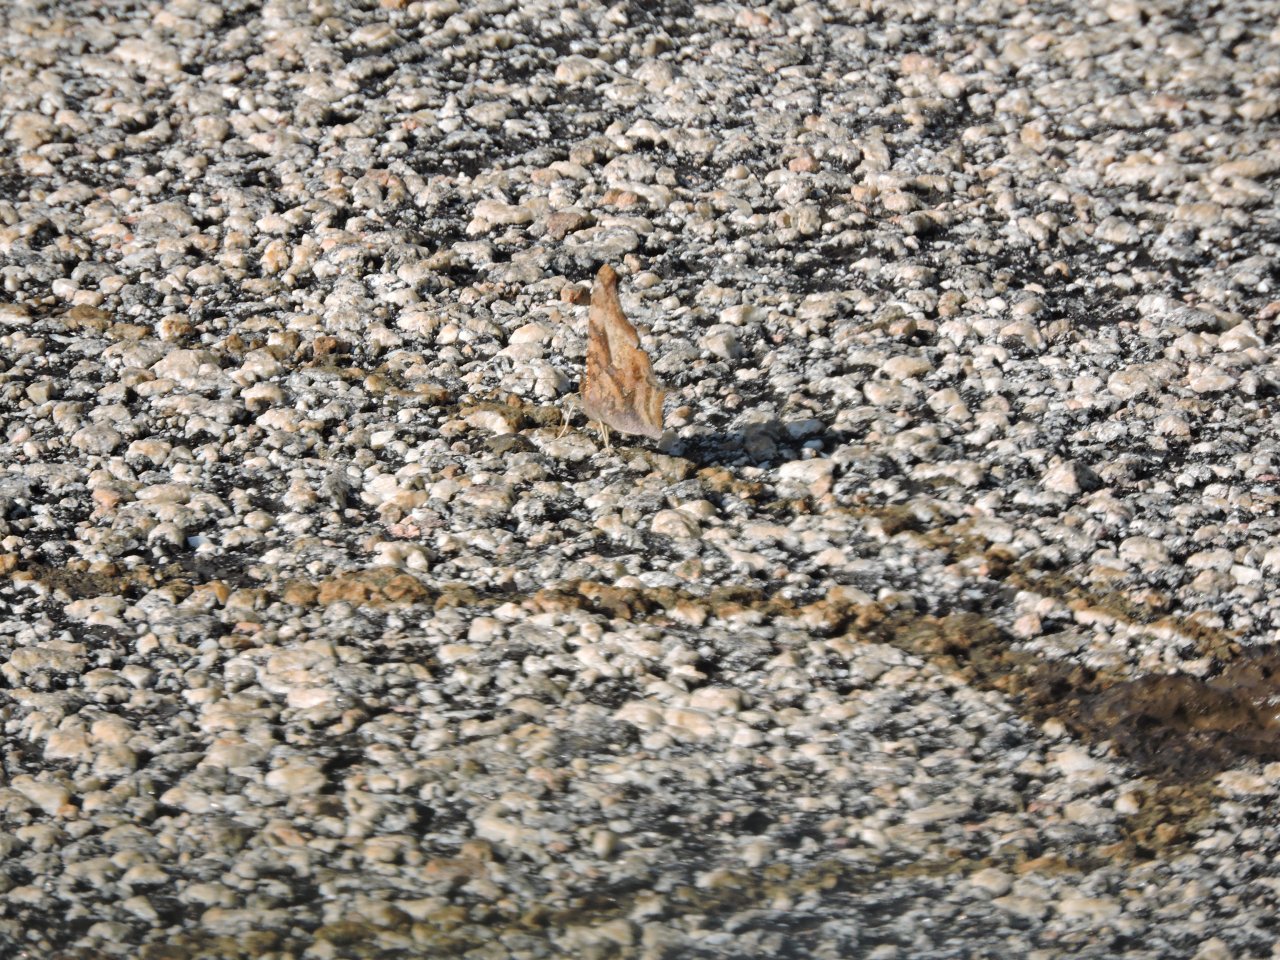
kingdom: Animalia
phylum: Arthropoda
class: Insecta
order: Lepidoptera
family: Nymphalidae
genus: Polygonia
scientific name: Polygonia interrogationis
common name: Question Mark
